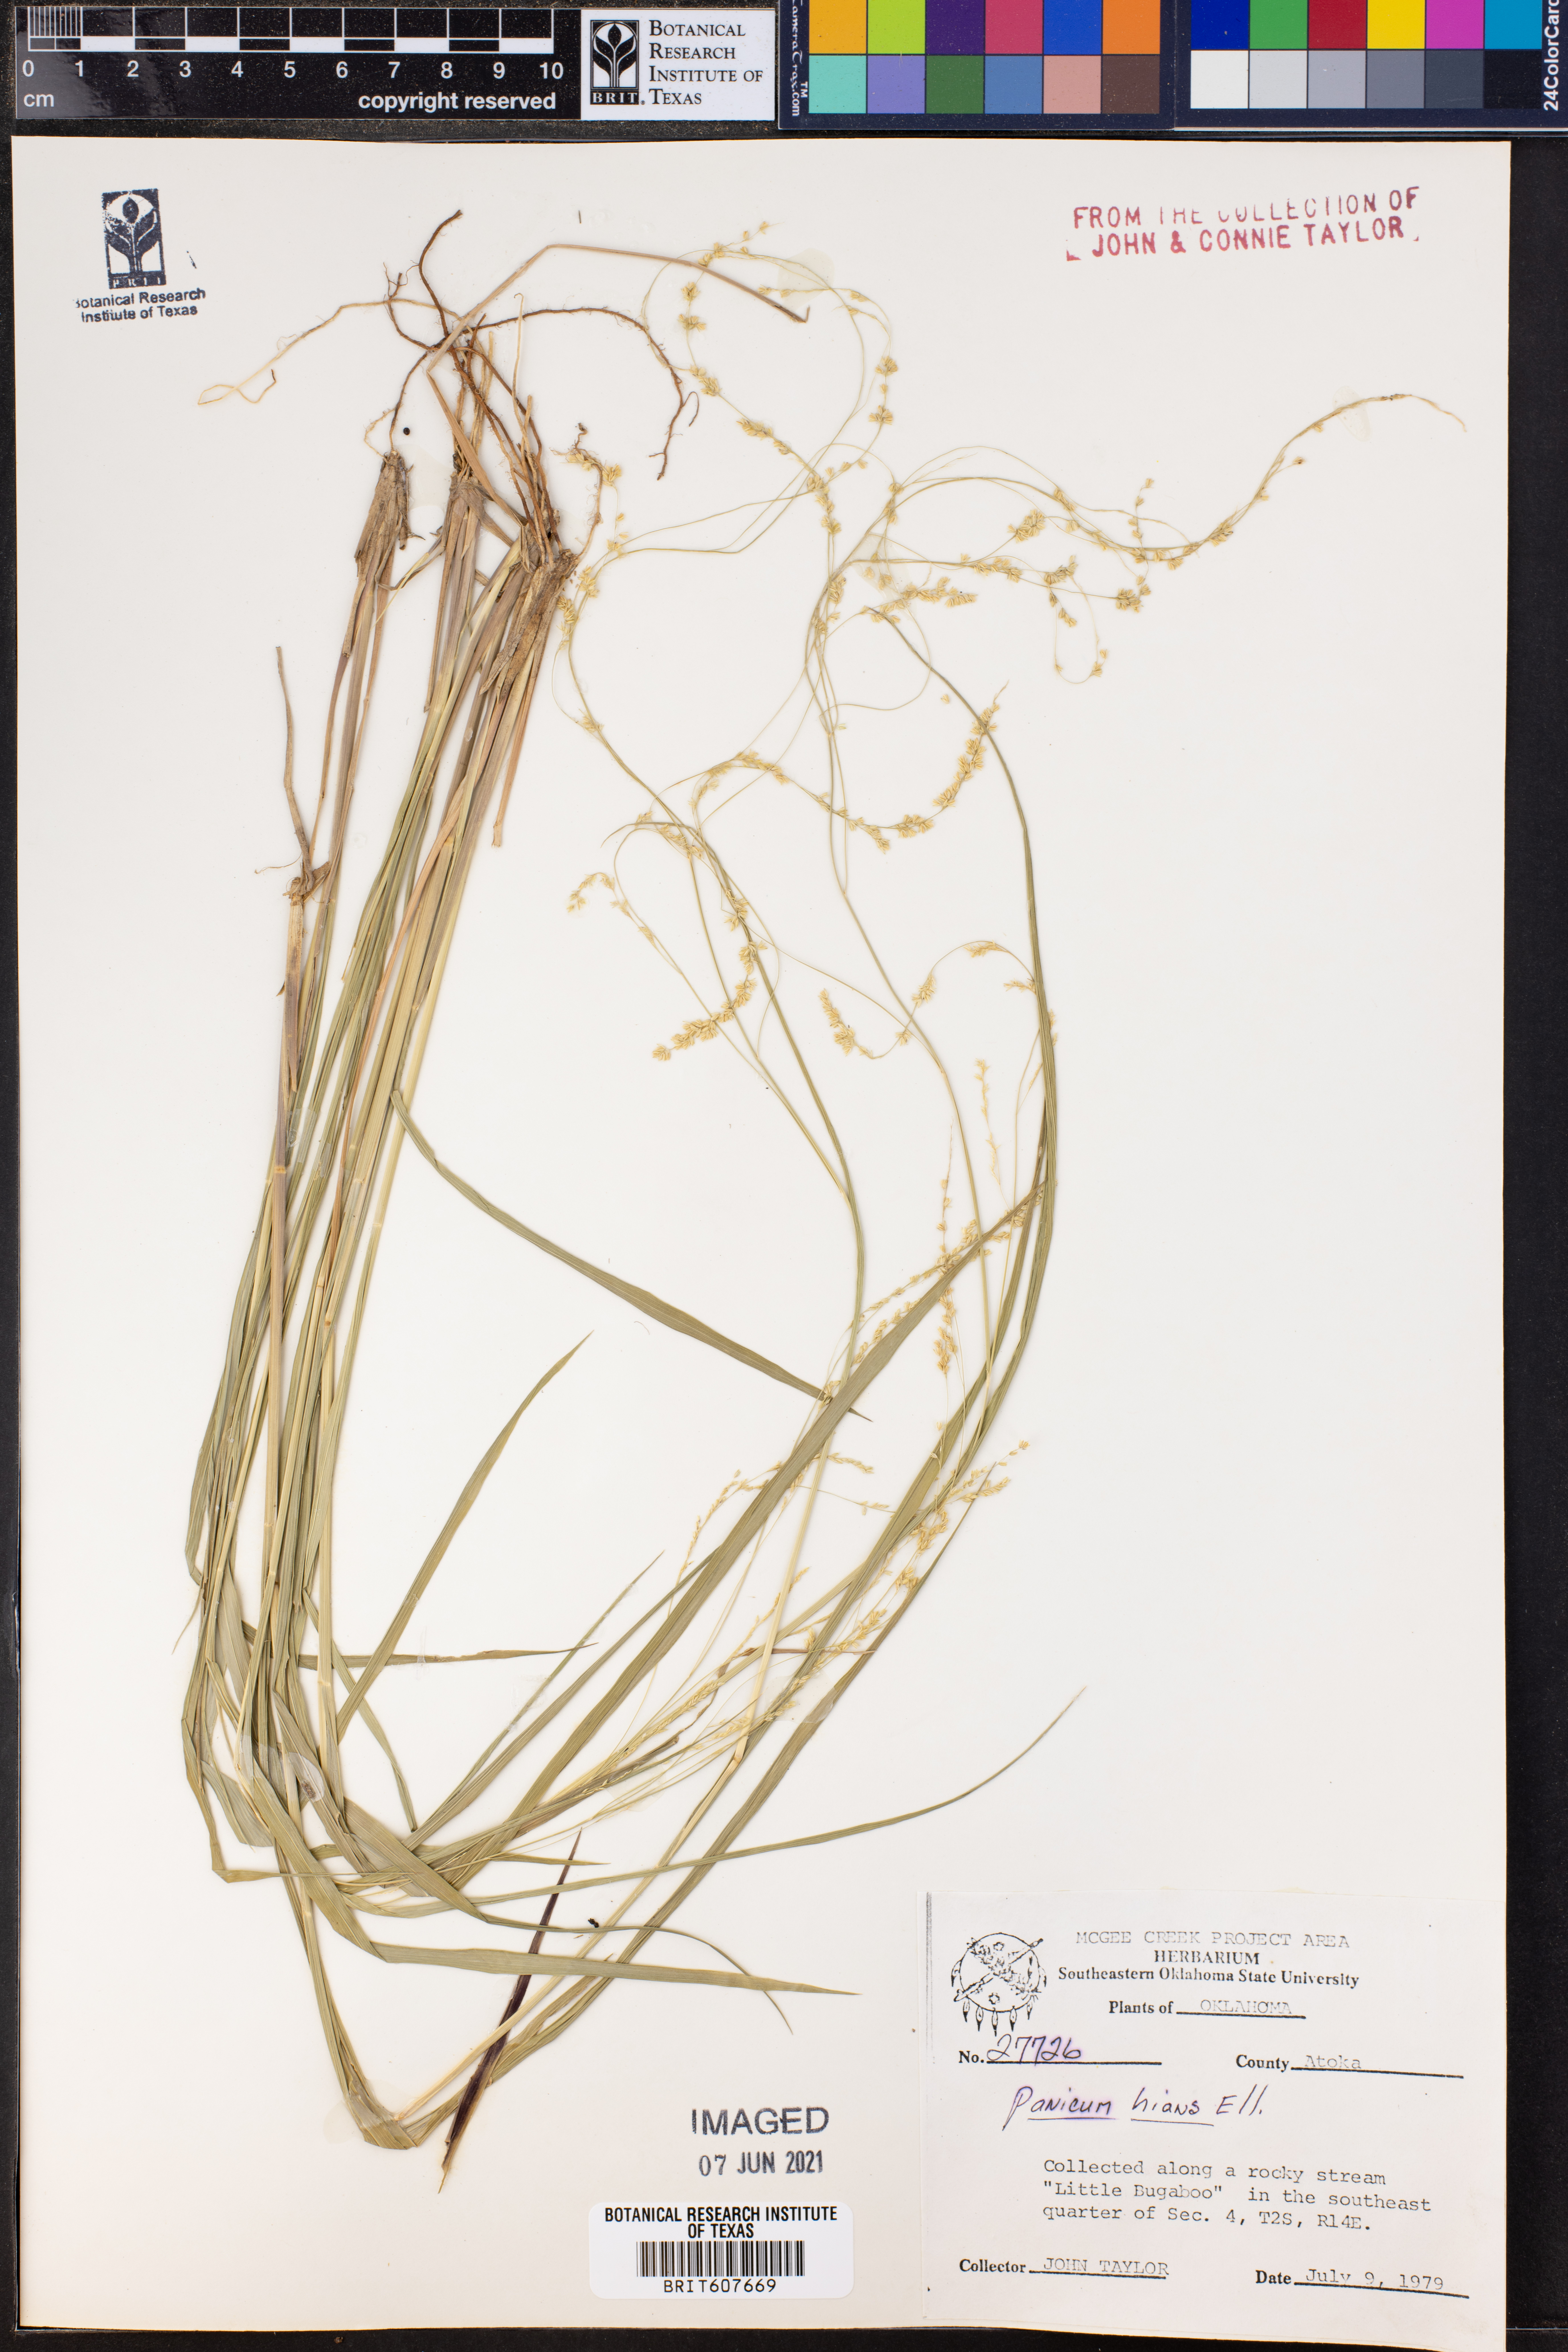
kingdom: Plantae
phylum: Tracheophyta
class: Liliopsida
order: Poales
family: Poaceae
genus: Coleataenia
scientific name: Coleataenia stenodes
